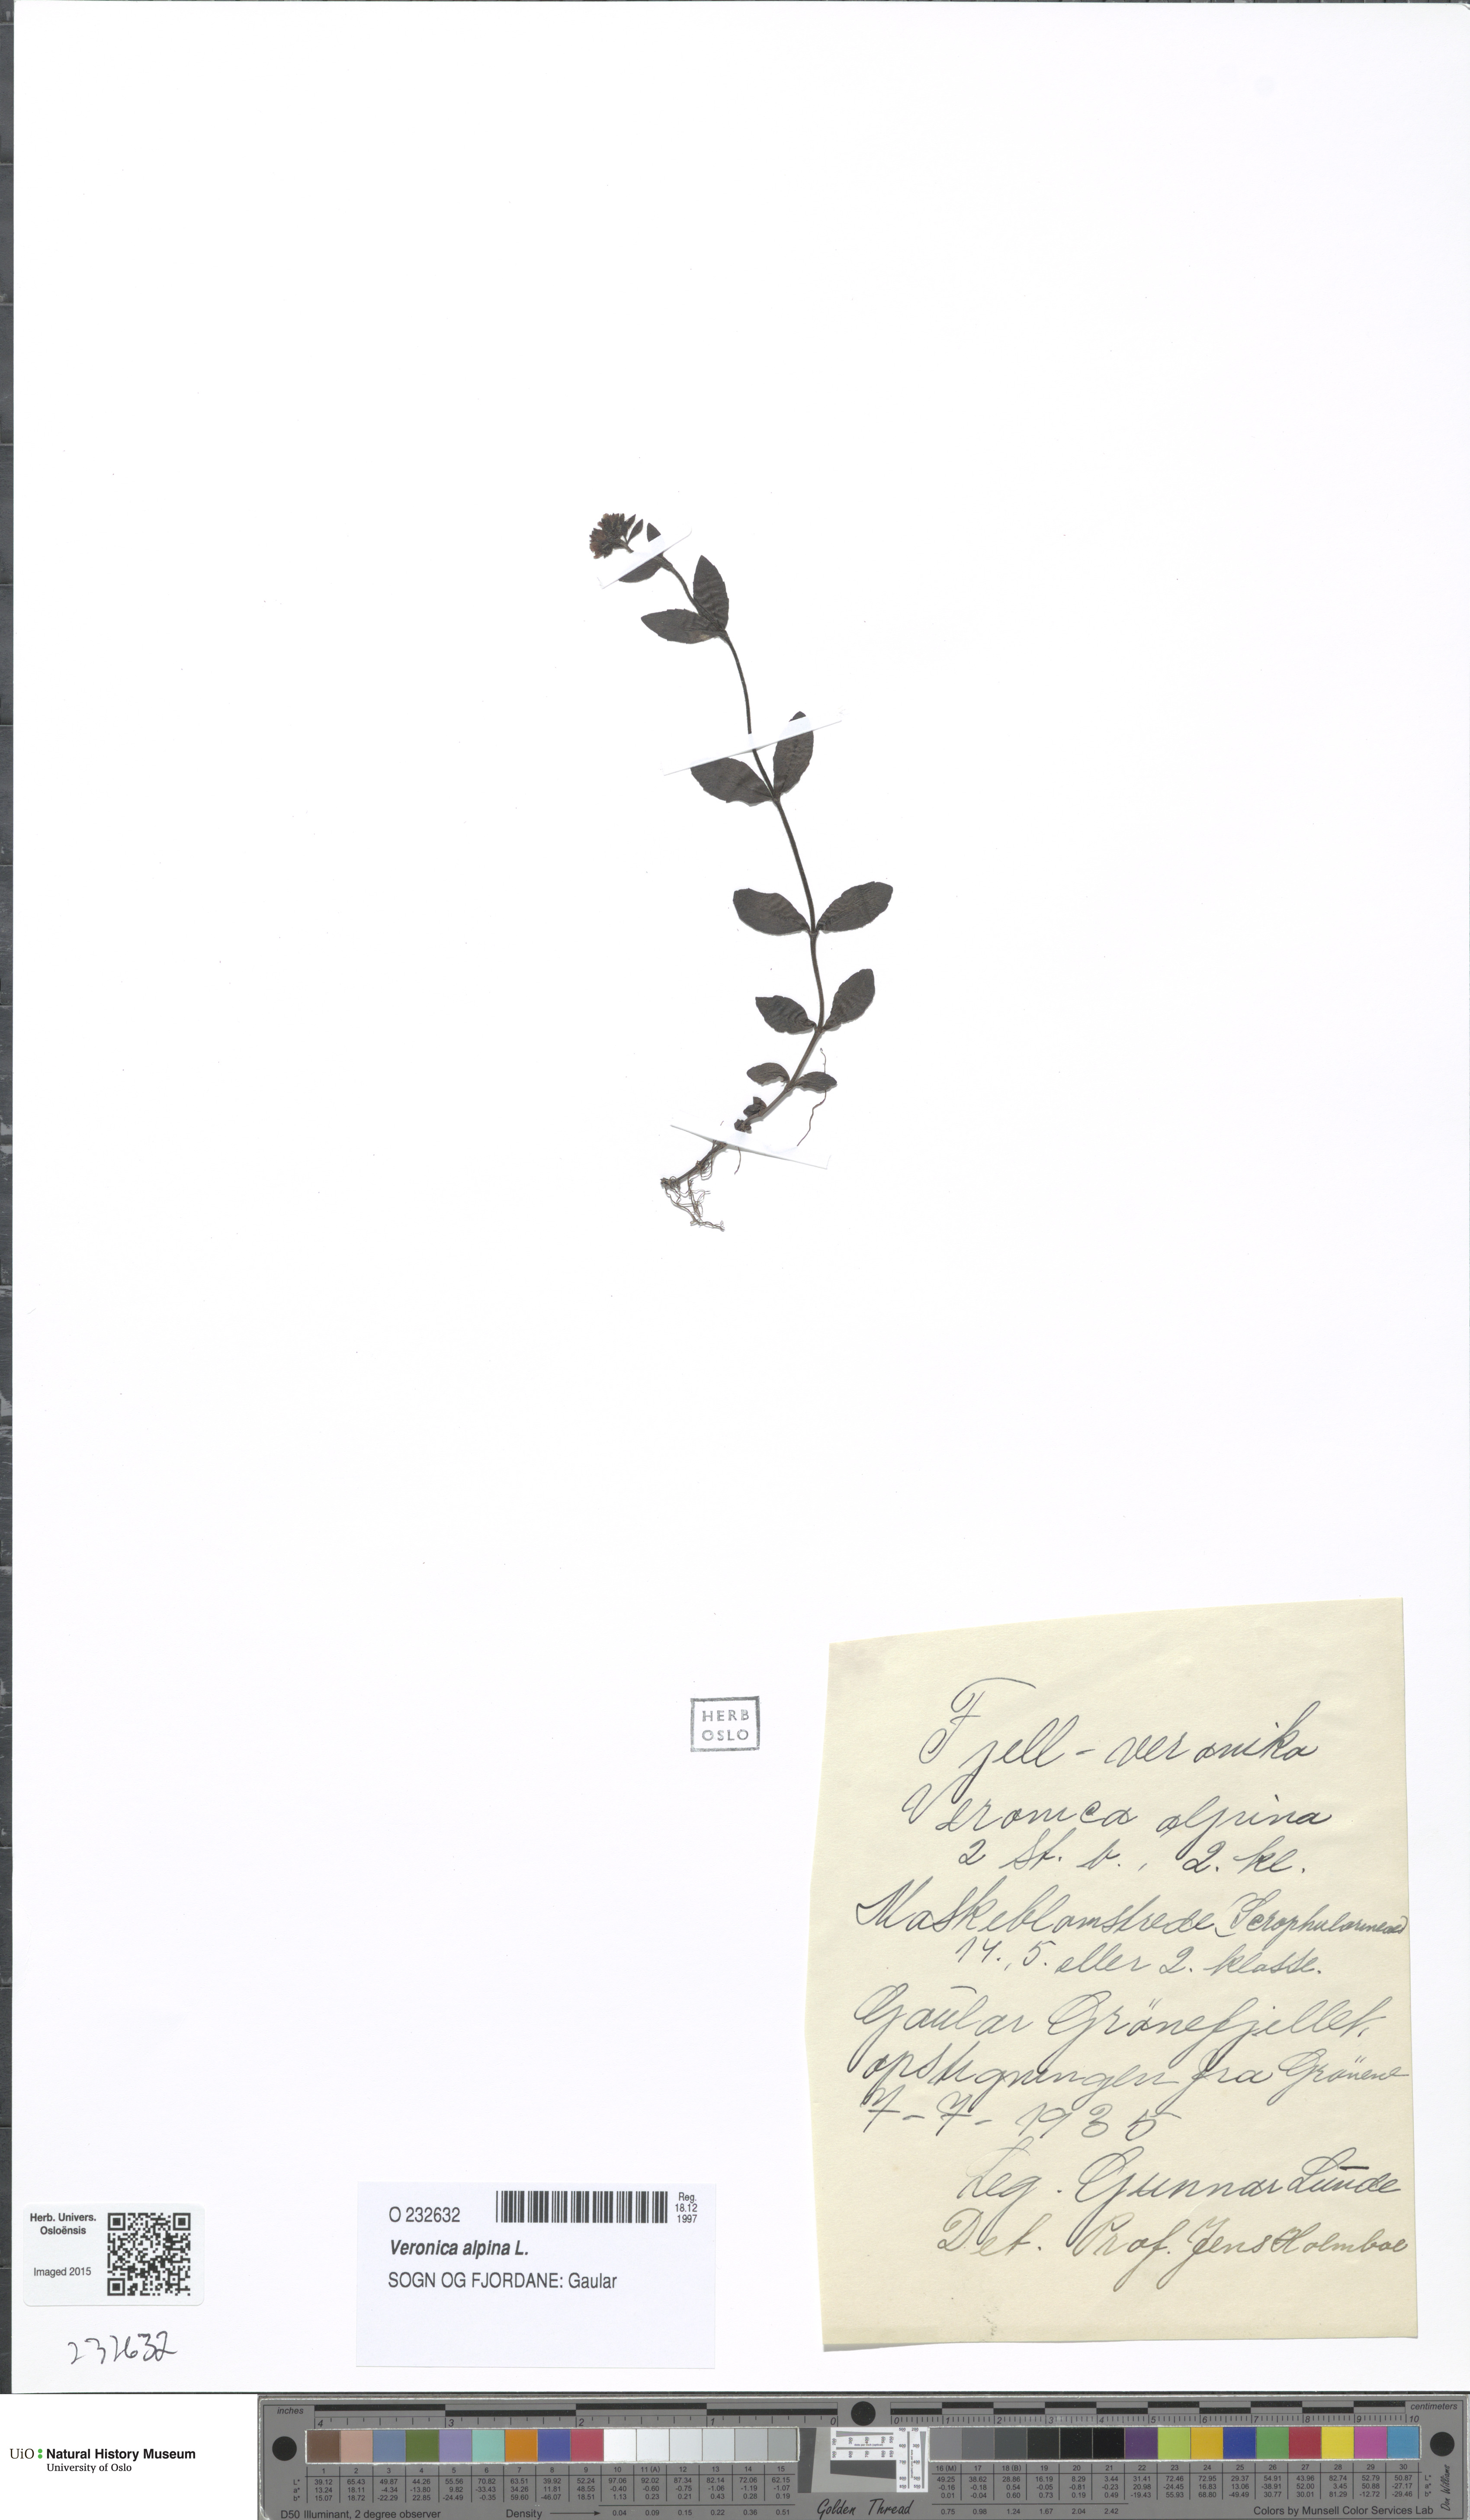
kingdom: Plantae
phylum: Tracheophyta
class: Magnoliopsida
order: Lamiales
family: Plantaginaceae
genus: Veronica
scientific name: Veronica alpina
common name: Alpine speedwell
